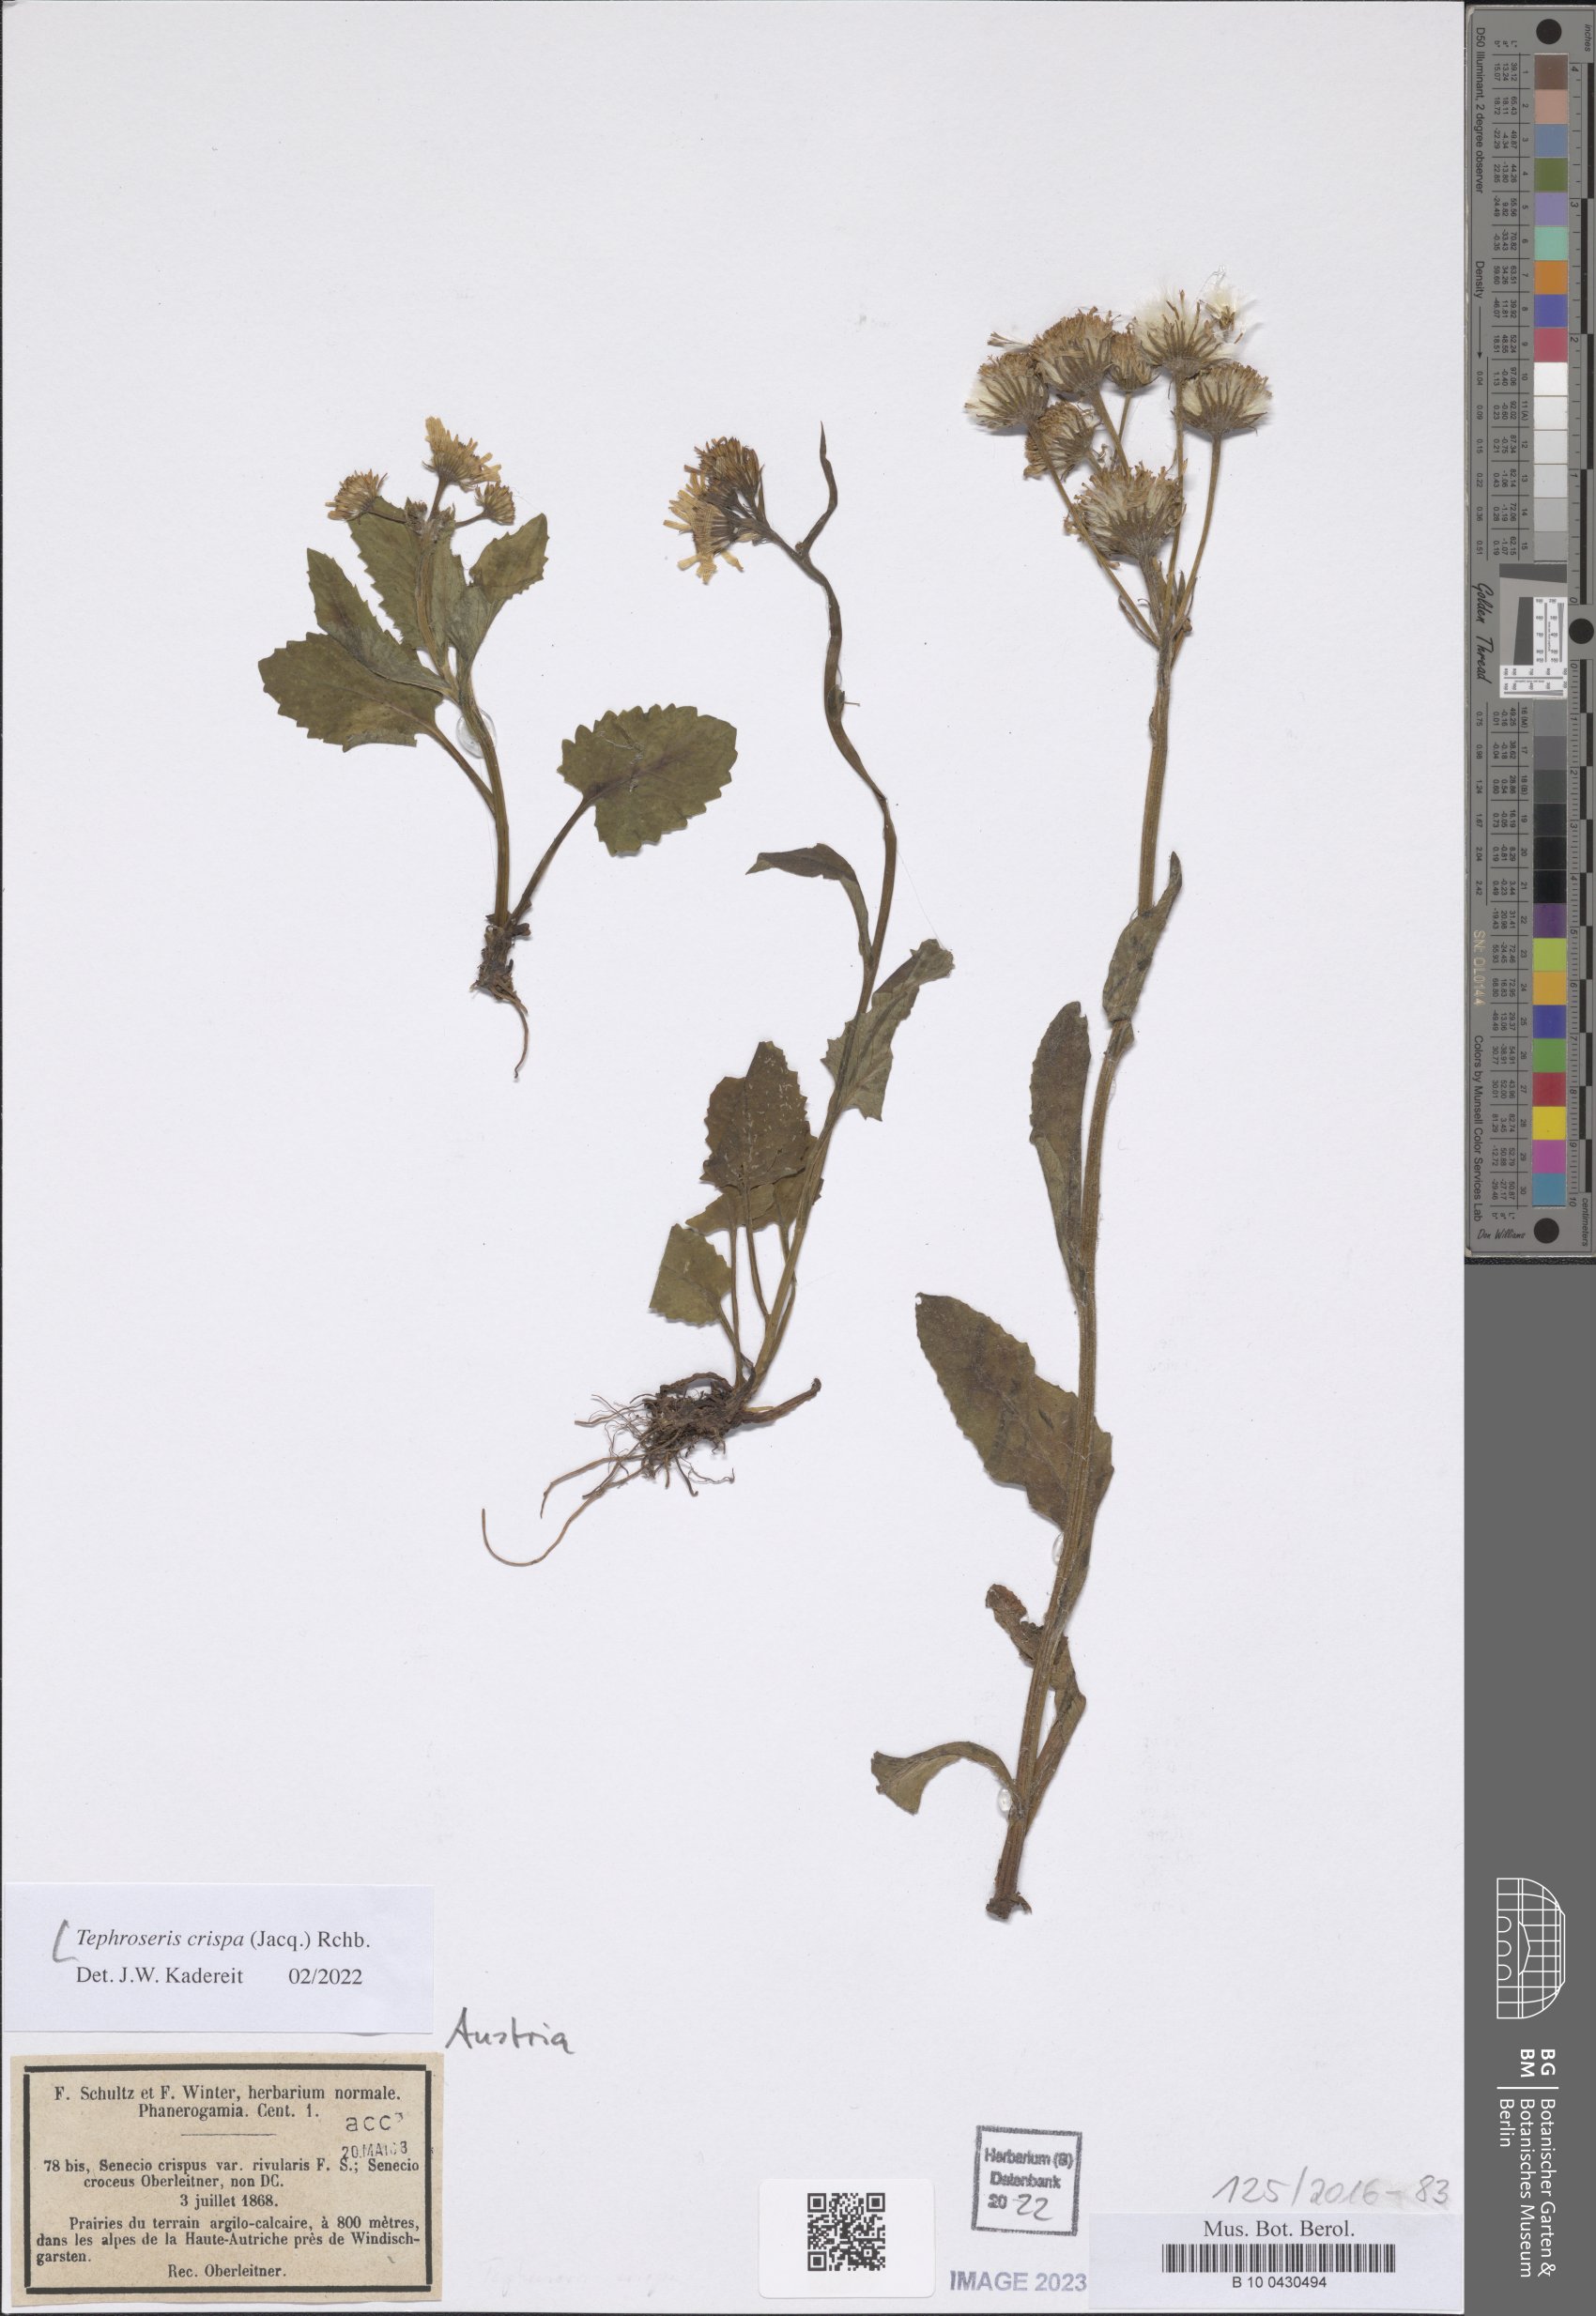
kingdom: Plantae
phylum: Tracheophyta
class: Magnoliopsida
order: Asterales
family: Asteraceae
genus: Tephroseris
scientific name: Tephroseris crispa
